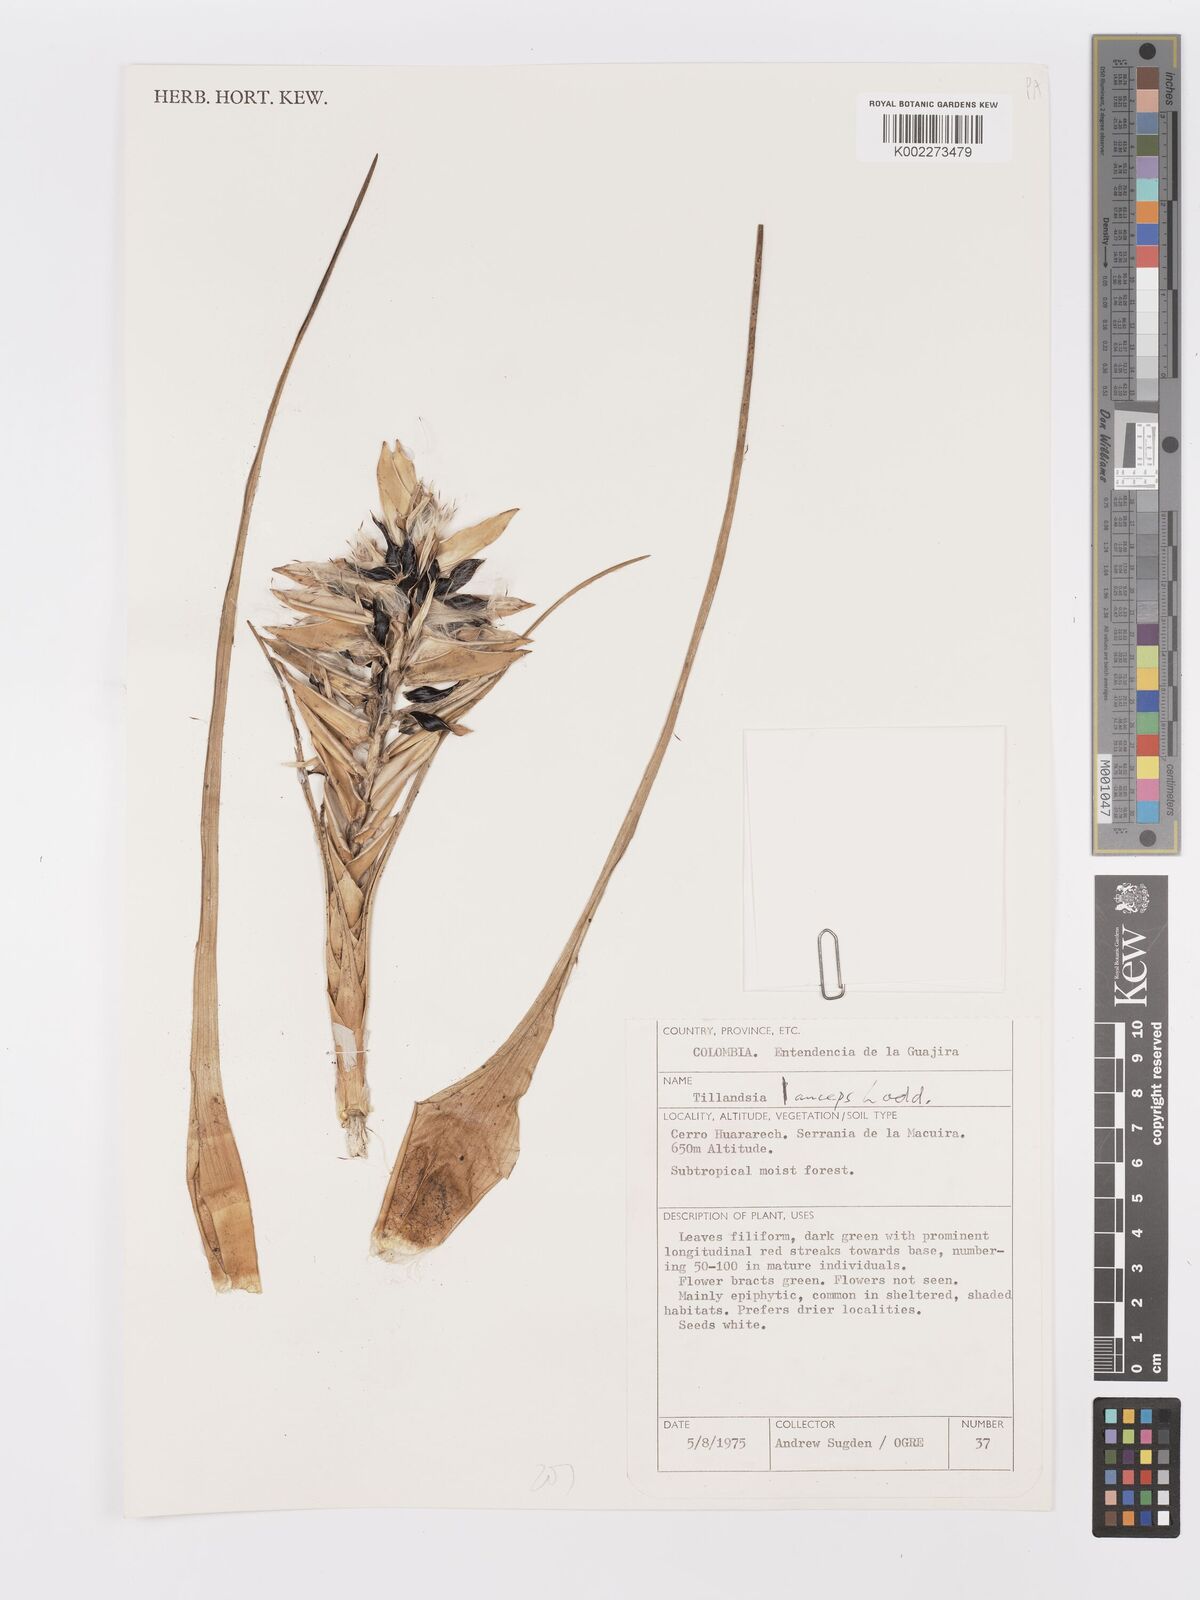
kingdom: Plantae
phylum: Tracheophyta
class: Liliopsida
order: Poales
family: Bromeliaceae
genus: Wallisia
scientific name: Wallisia anceps
